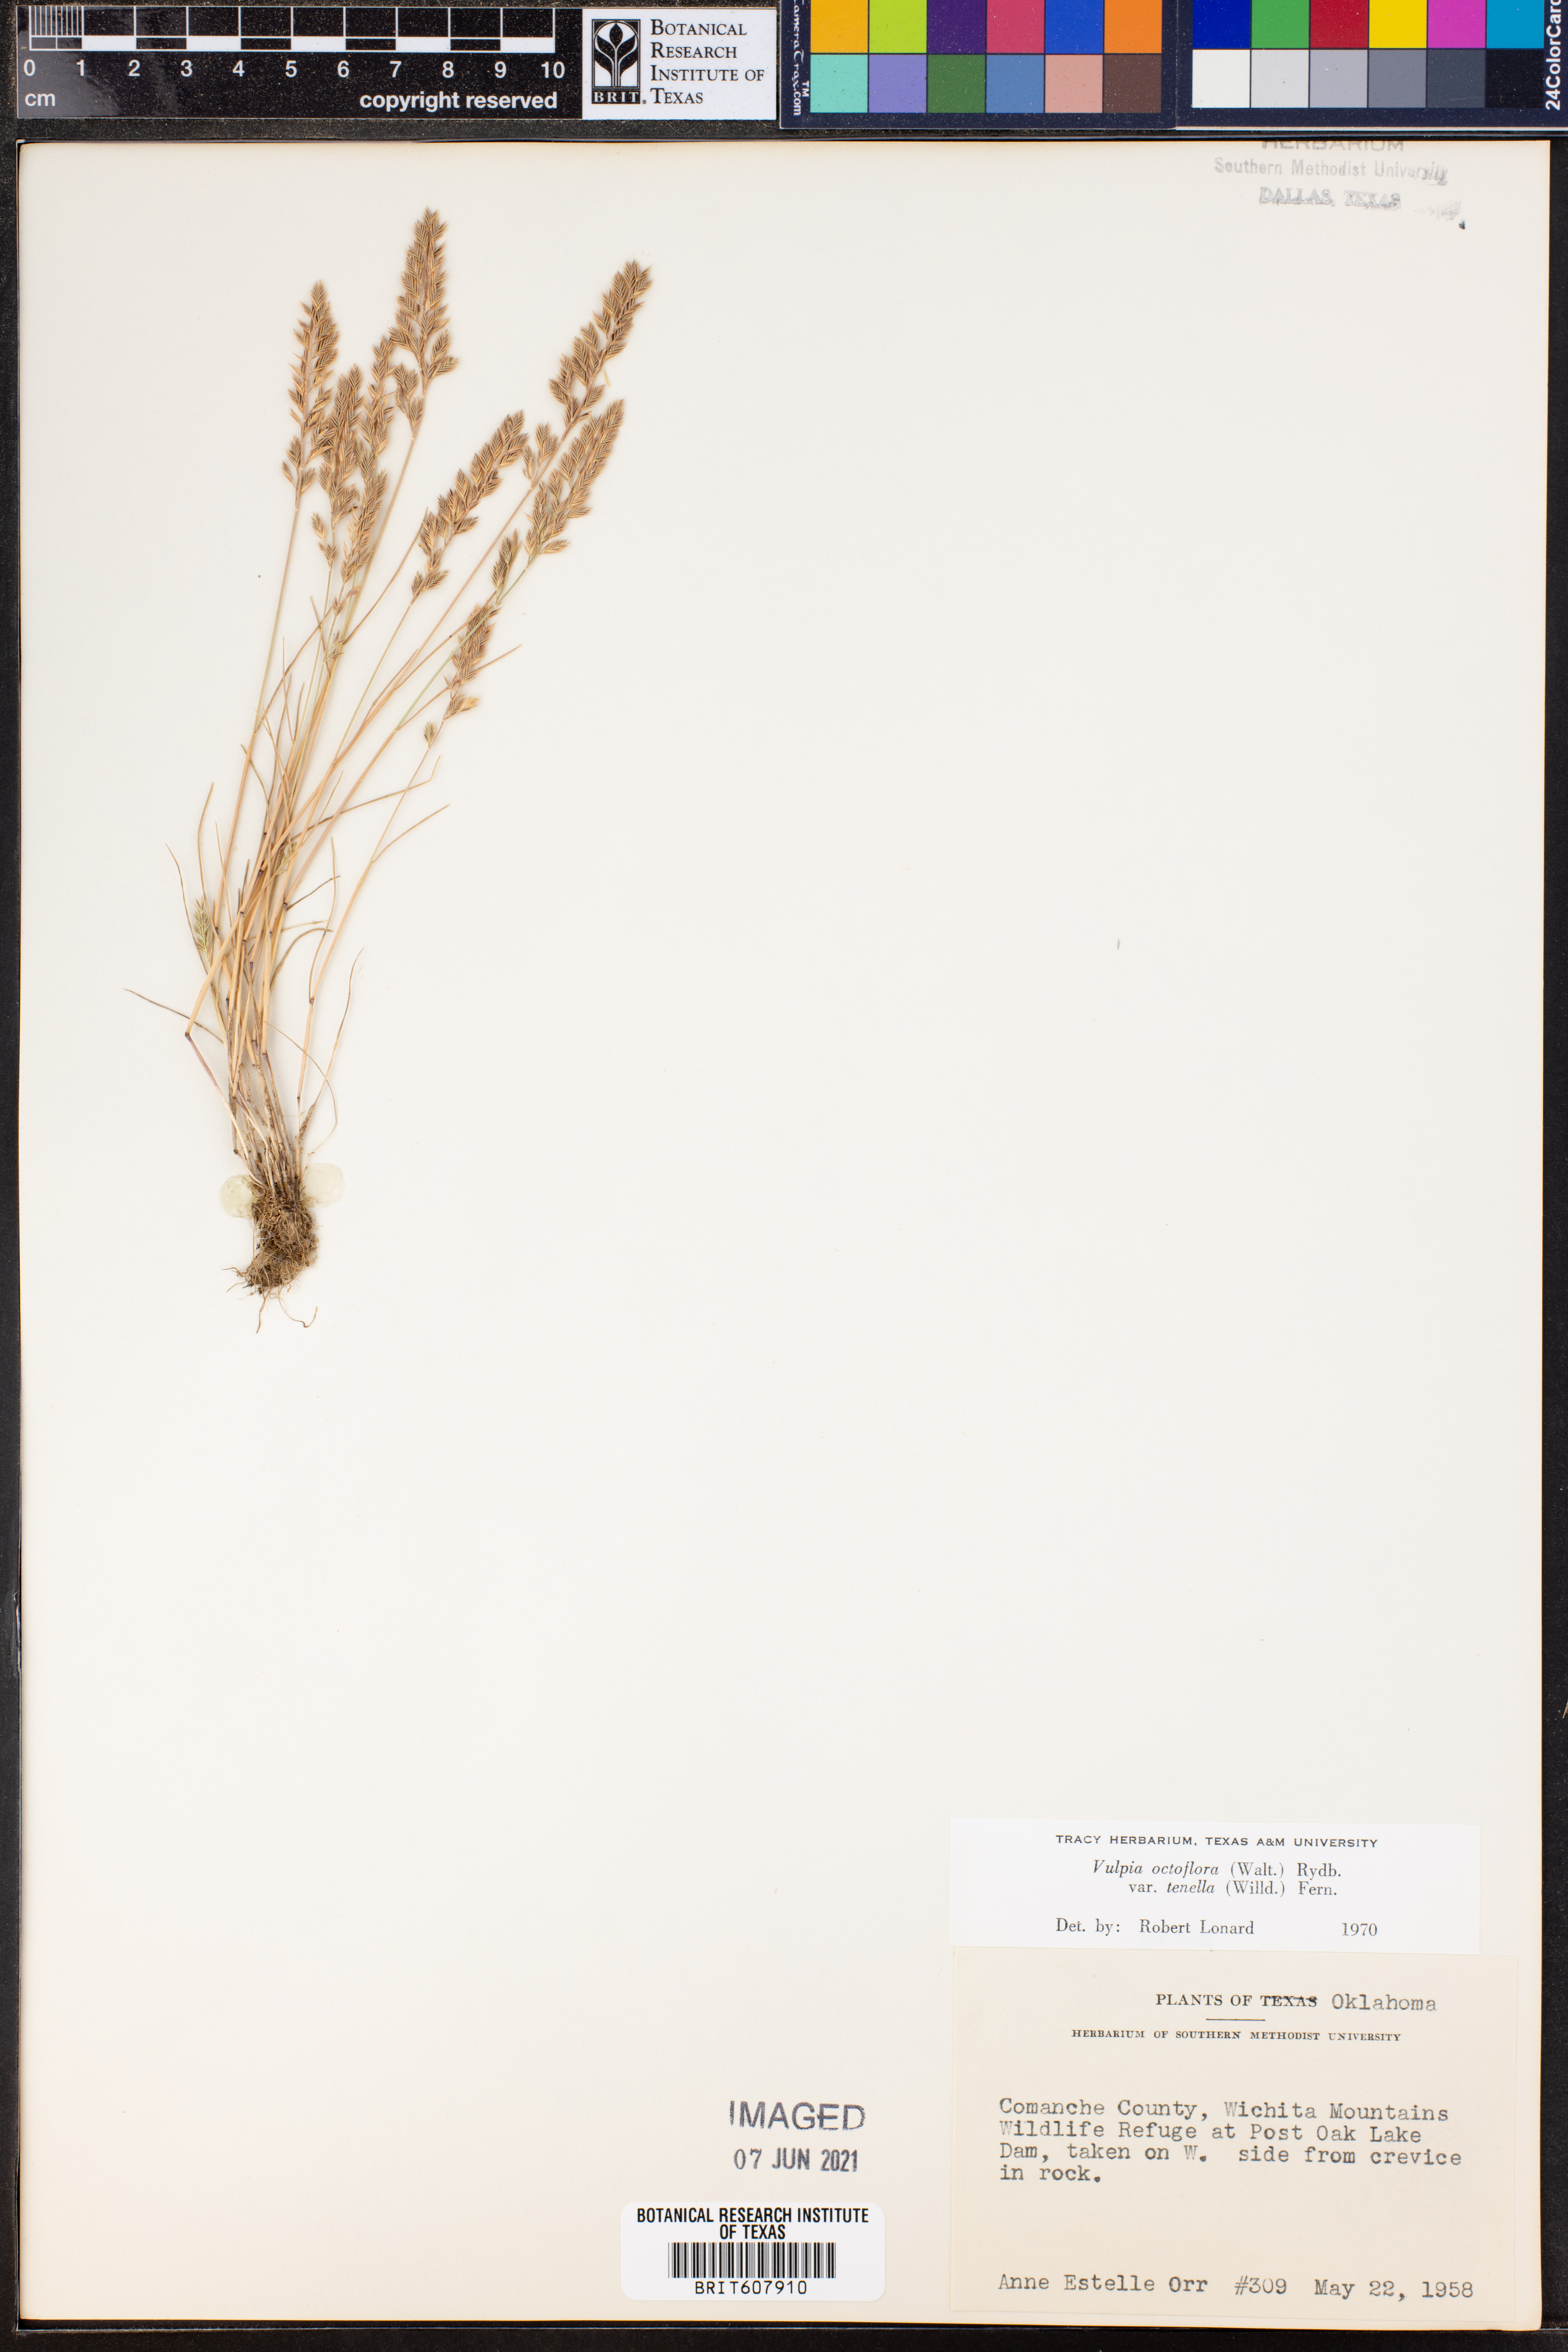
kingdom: Plantae
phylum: Tracheophyta
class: Liliopsida
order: Poales
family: Poaceae
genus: Festuca
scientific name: Festuca octoflora
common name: Sixweeks grass
